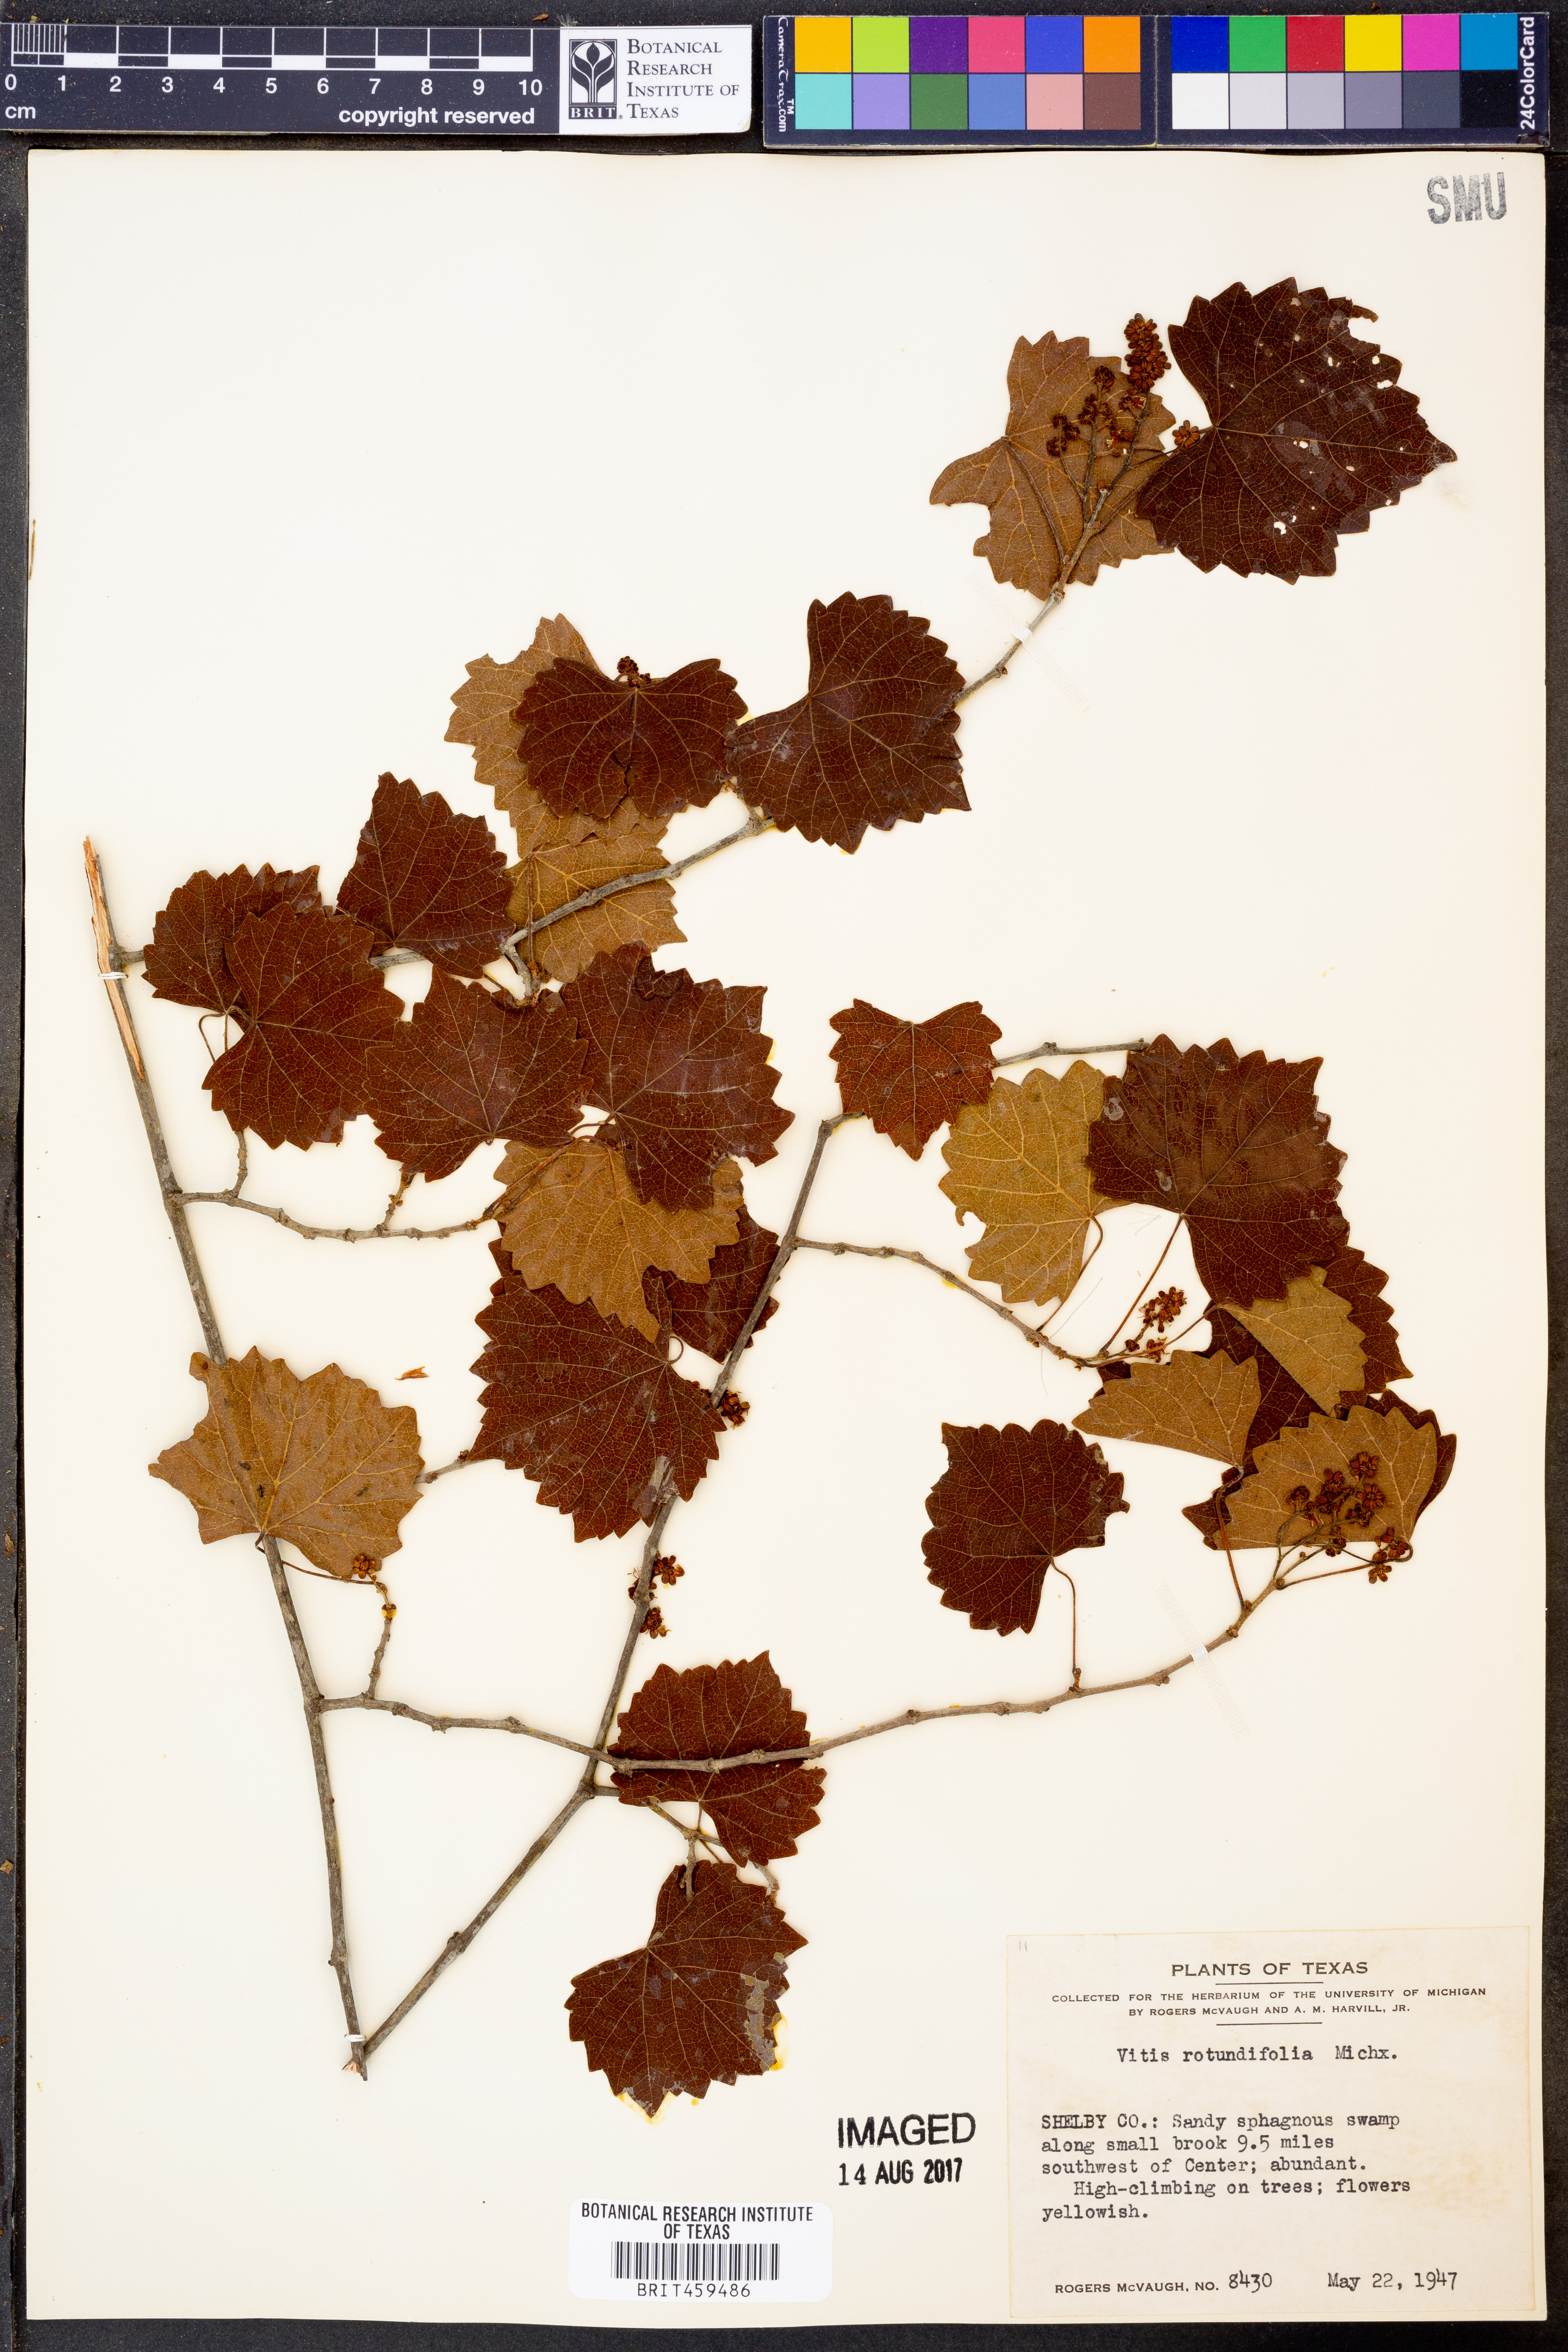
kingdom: Plantae
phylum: Tracheophyta
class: Magnoliopsida
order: Vitales
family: Vitaceae
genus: Vitis
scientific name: Vitis rotundifolia
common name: Muscadine grape
